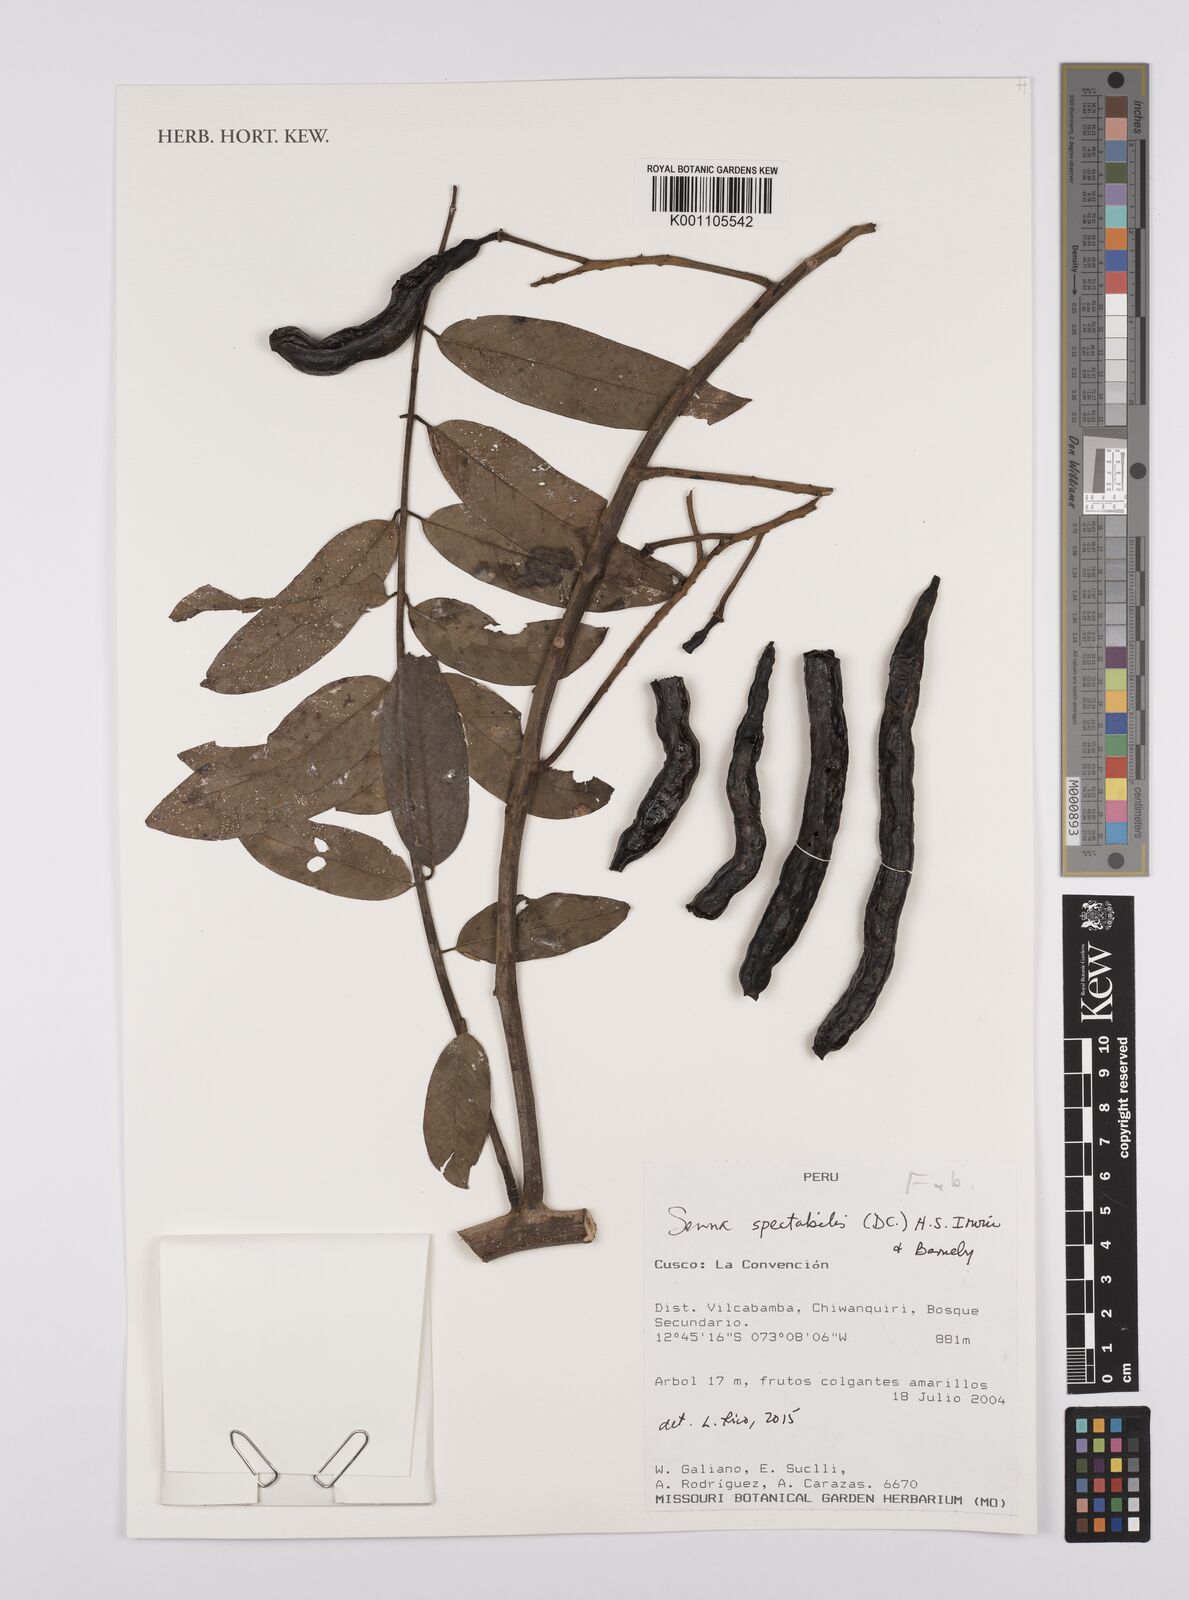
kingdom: Plantae
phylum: Tracheophyta
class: Magnoliopsida
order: Fabales
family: Fabaceae
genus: Senna
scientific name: Senna spectabilis
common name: Casia amarilla
